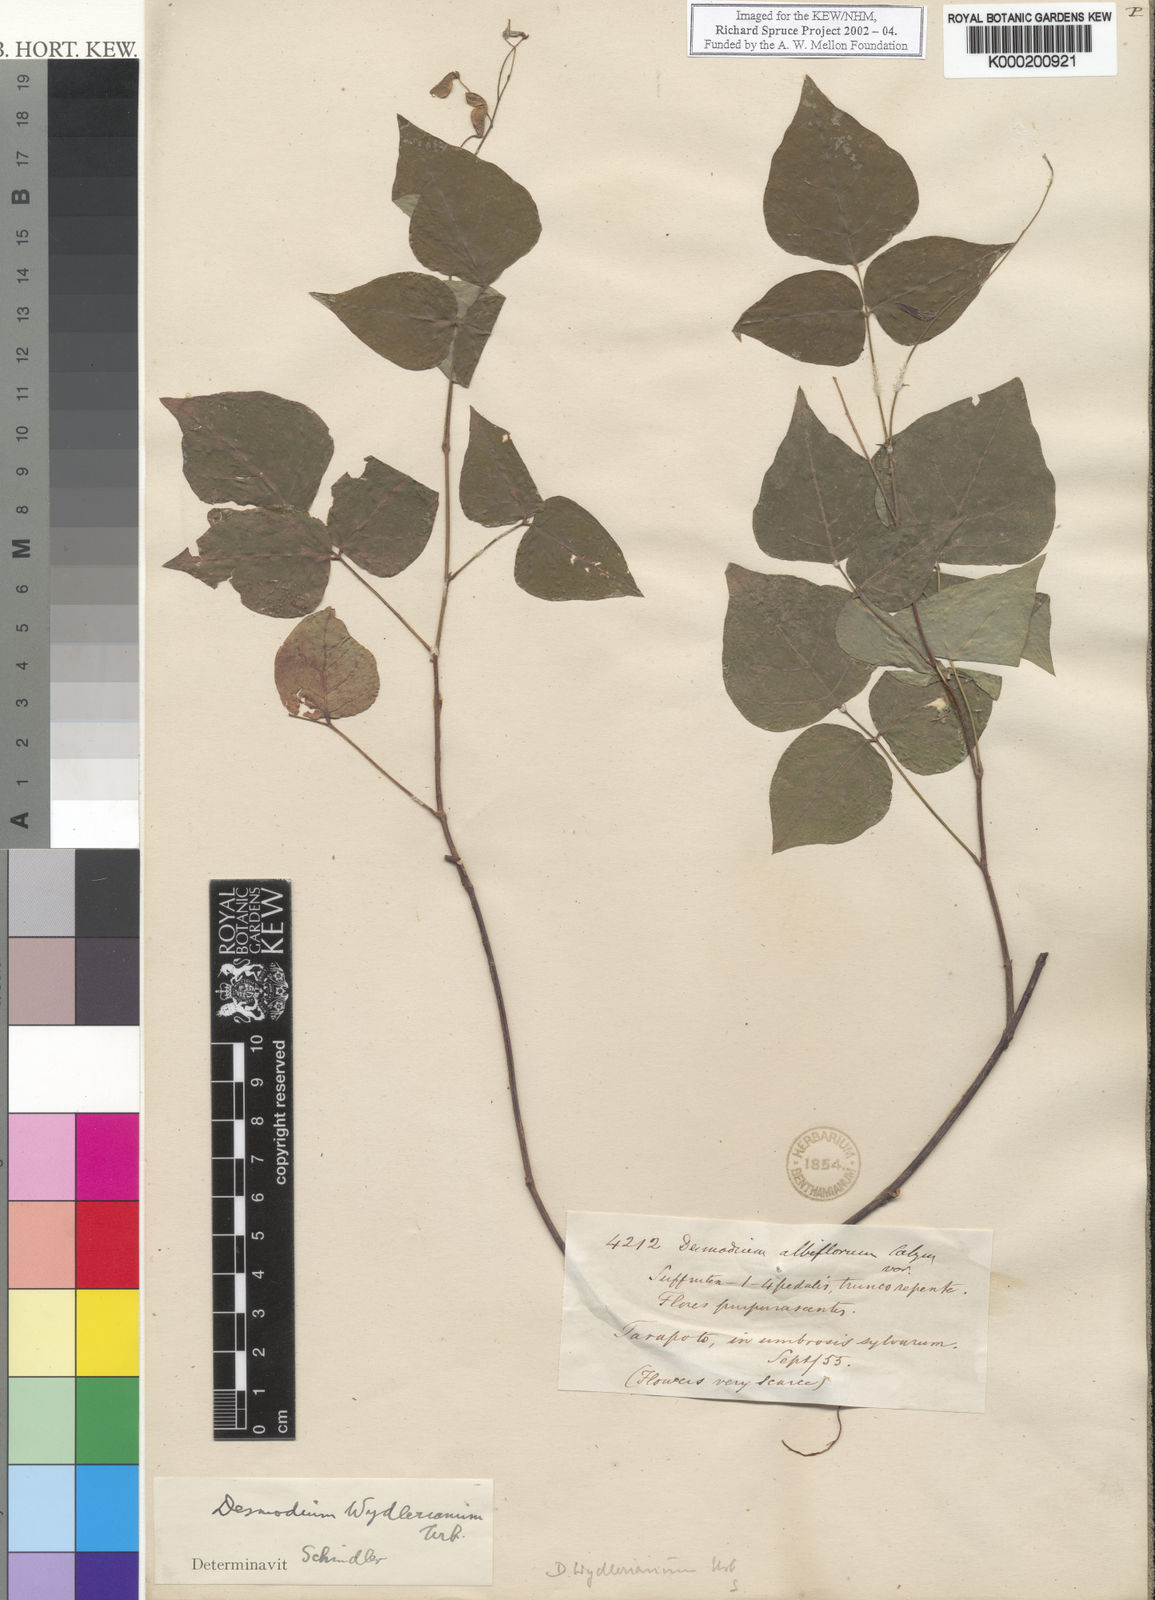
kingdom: Plantae
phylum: Tracheophyta
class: Magnoliopsida
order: Fabales
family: Fabaceae
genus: Desmodium
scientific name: Desmodium wydlerianum
